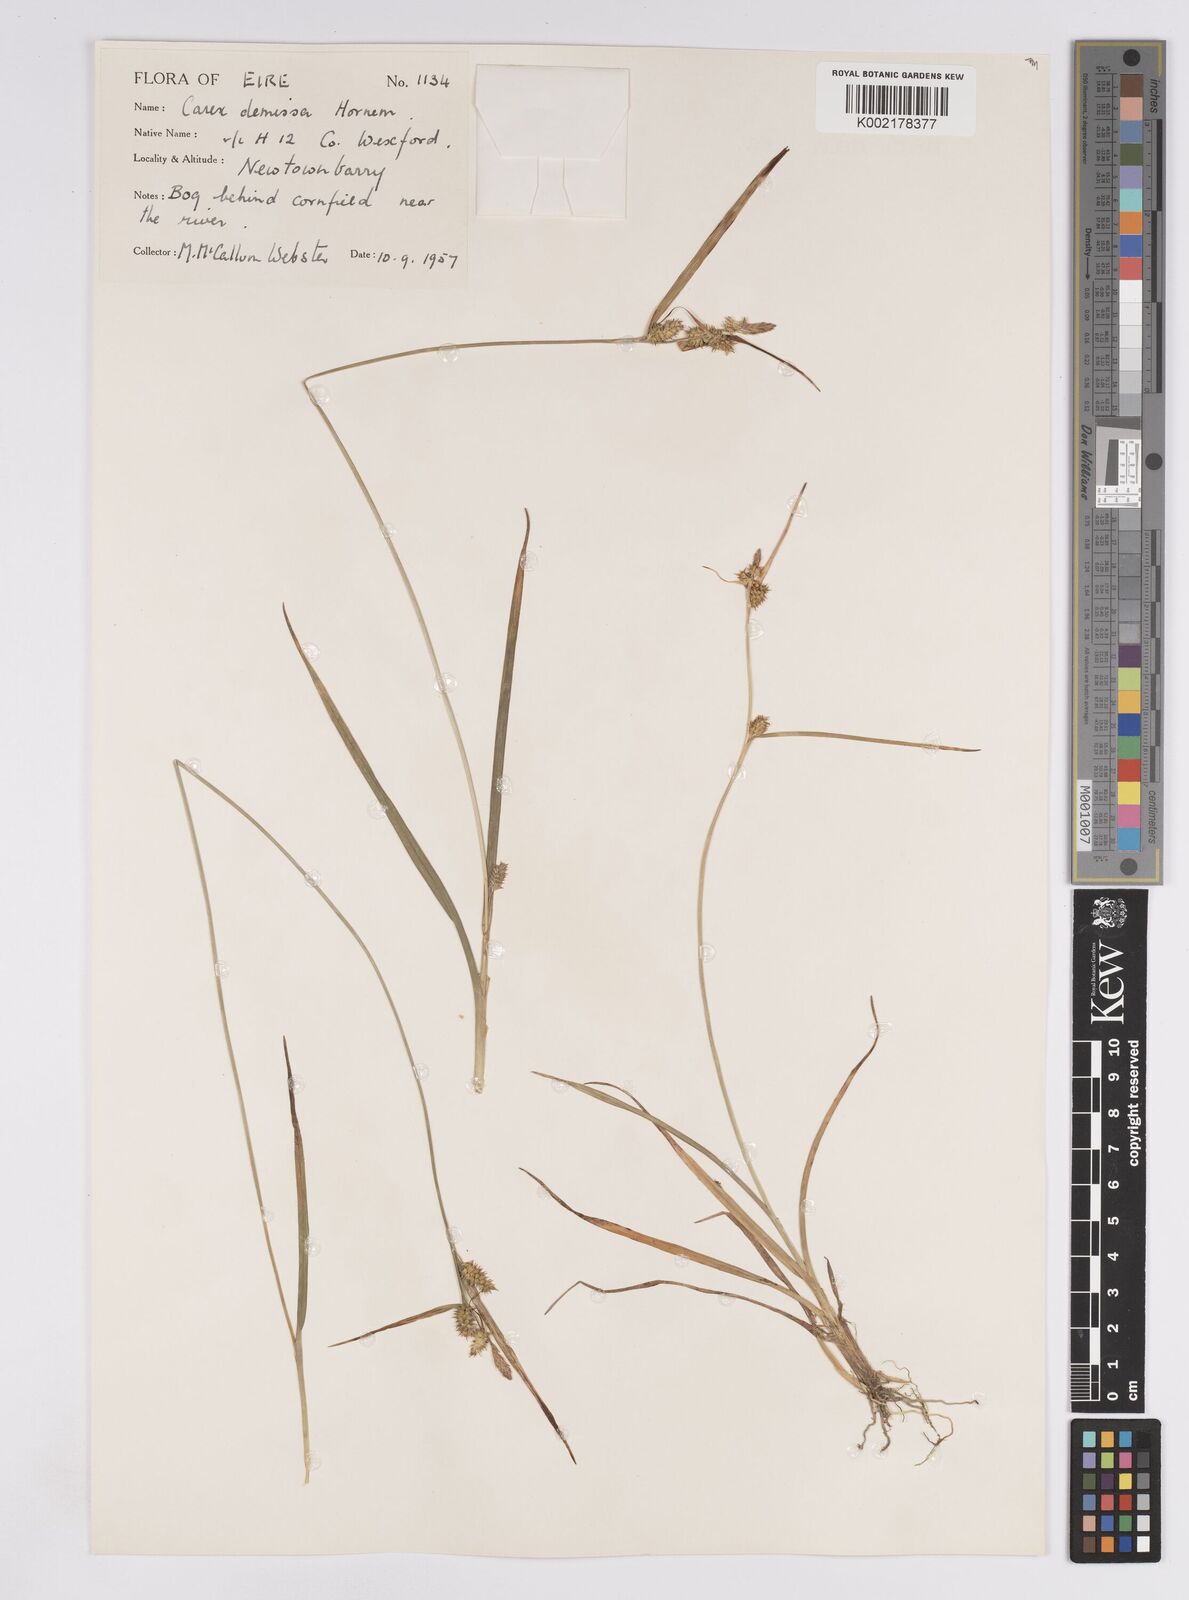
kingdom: Plantae
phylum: Tracheophyta
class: Liliopsida
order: Poales
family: Cyperaceae
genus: Carex
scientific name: Carex demissa
